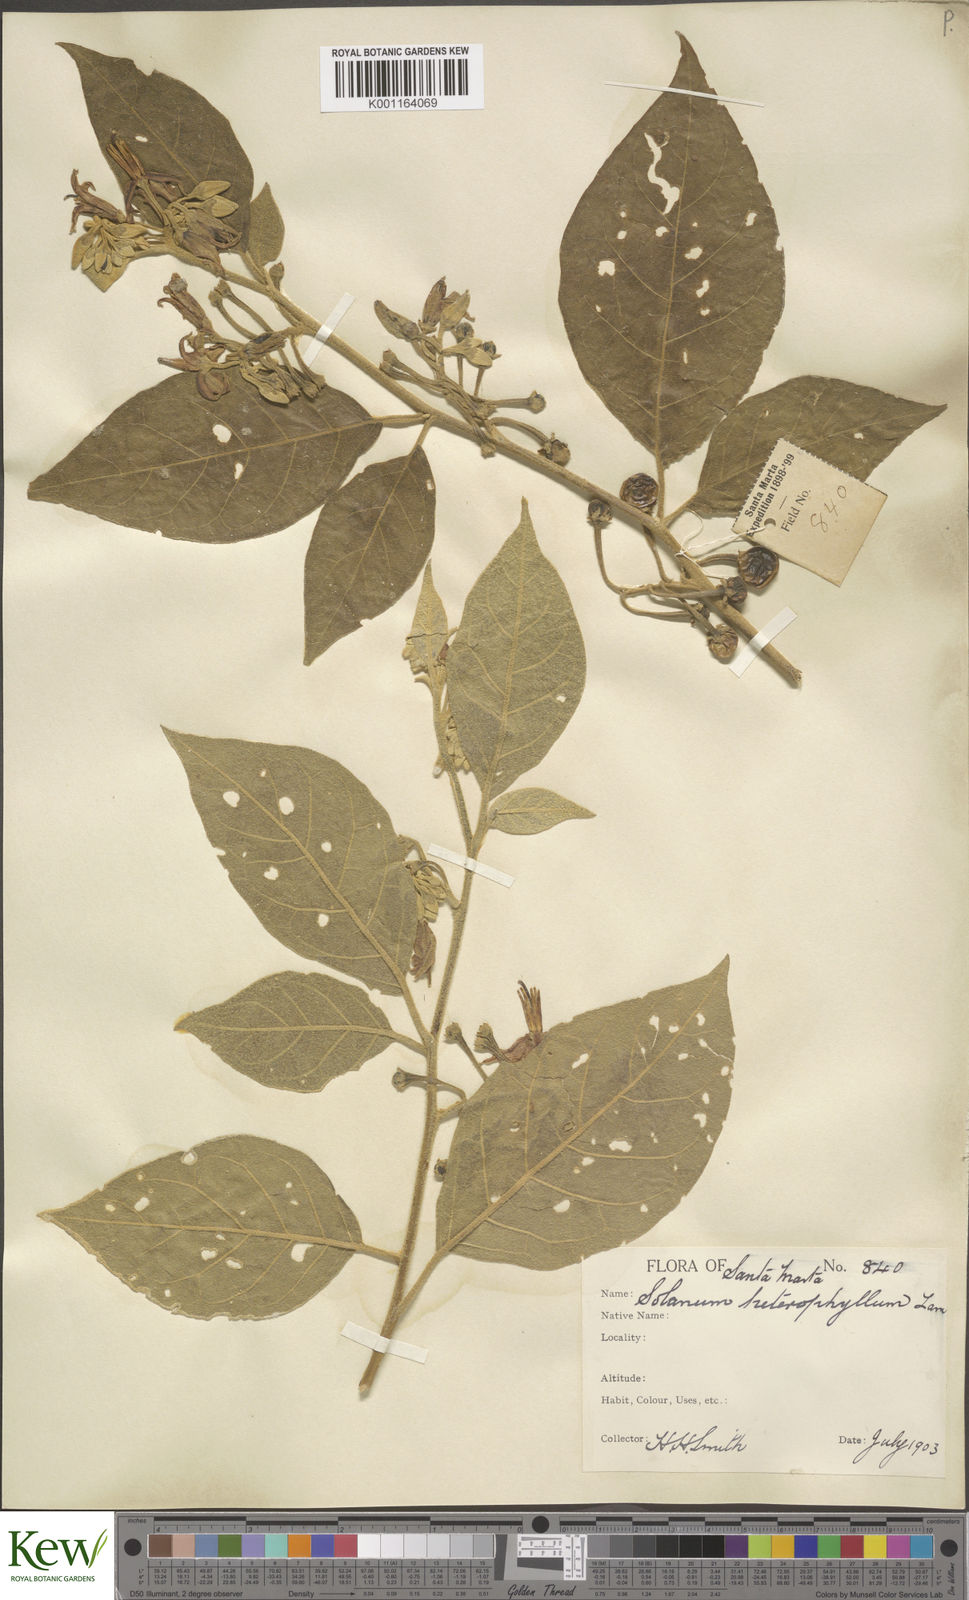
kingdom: Plantae
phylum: Tracheophyta
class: Magnoliopsida
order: Solanales
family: Solanaceae
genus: Solanum
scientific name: Solanum subinerme
